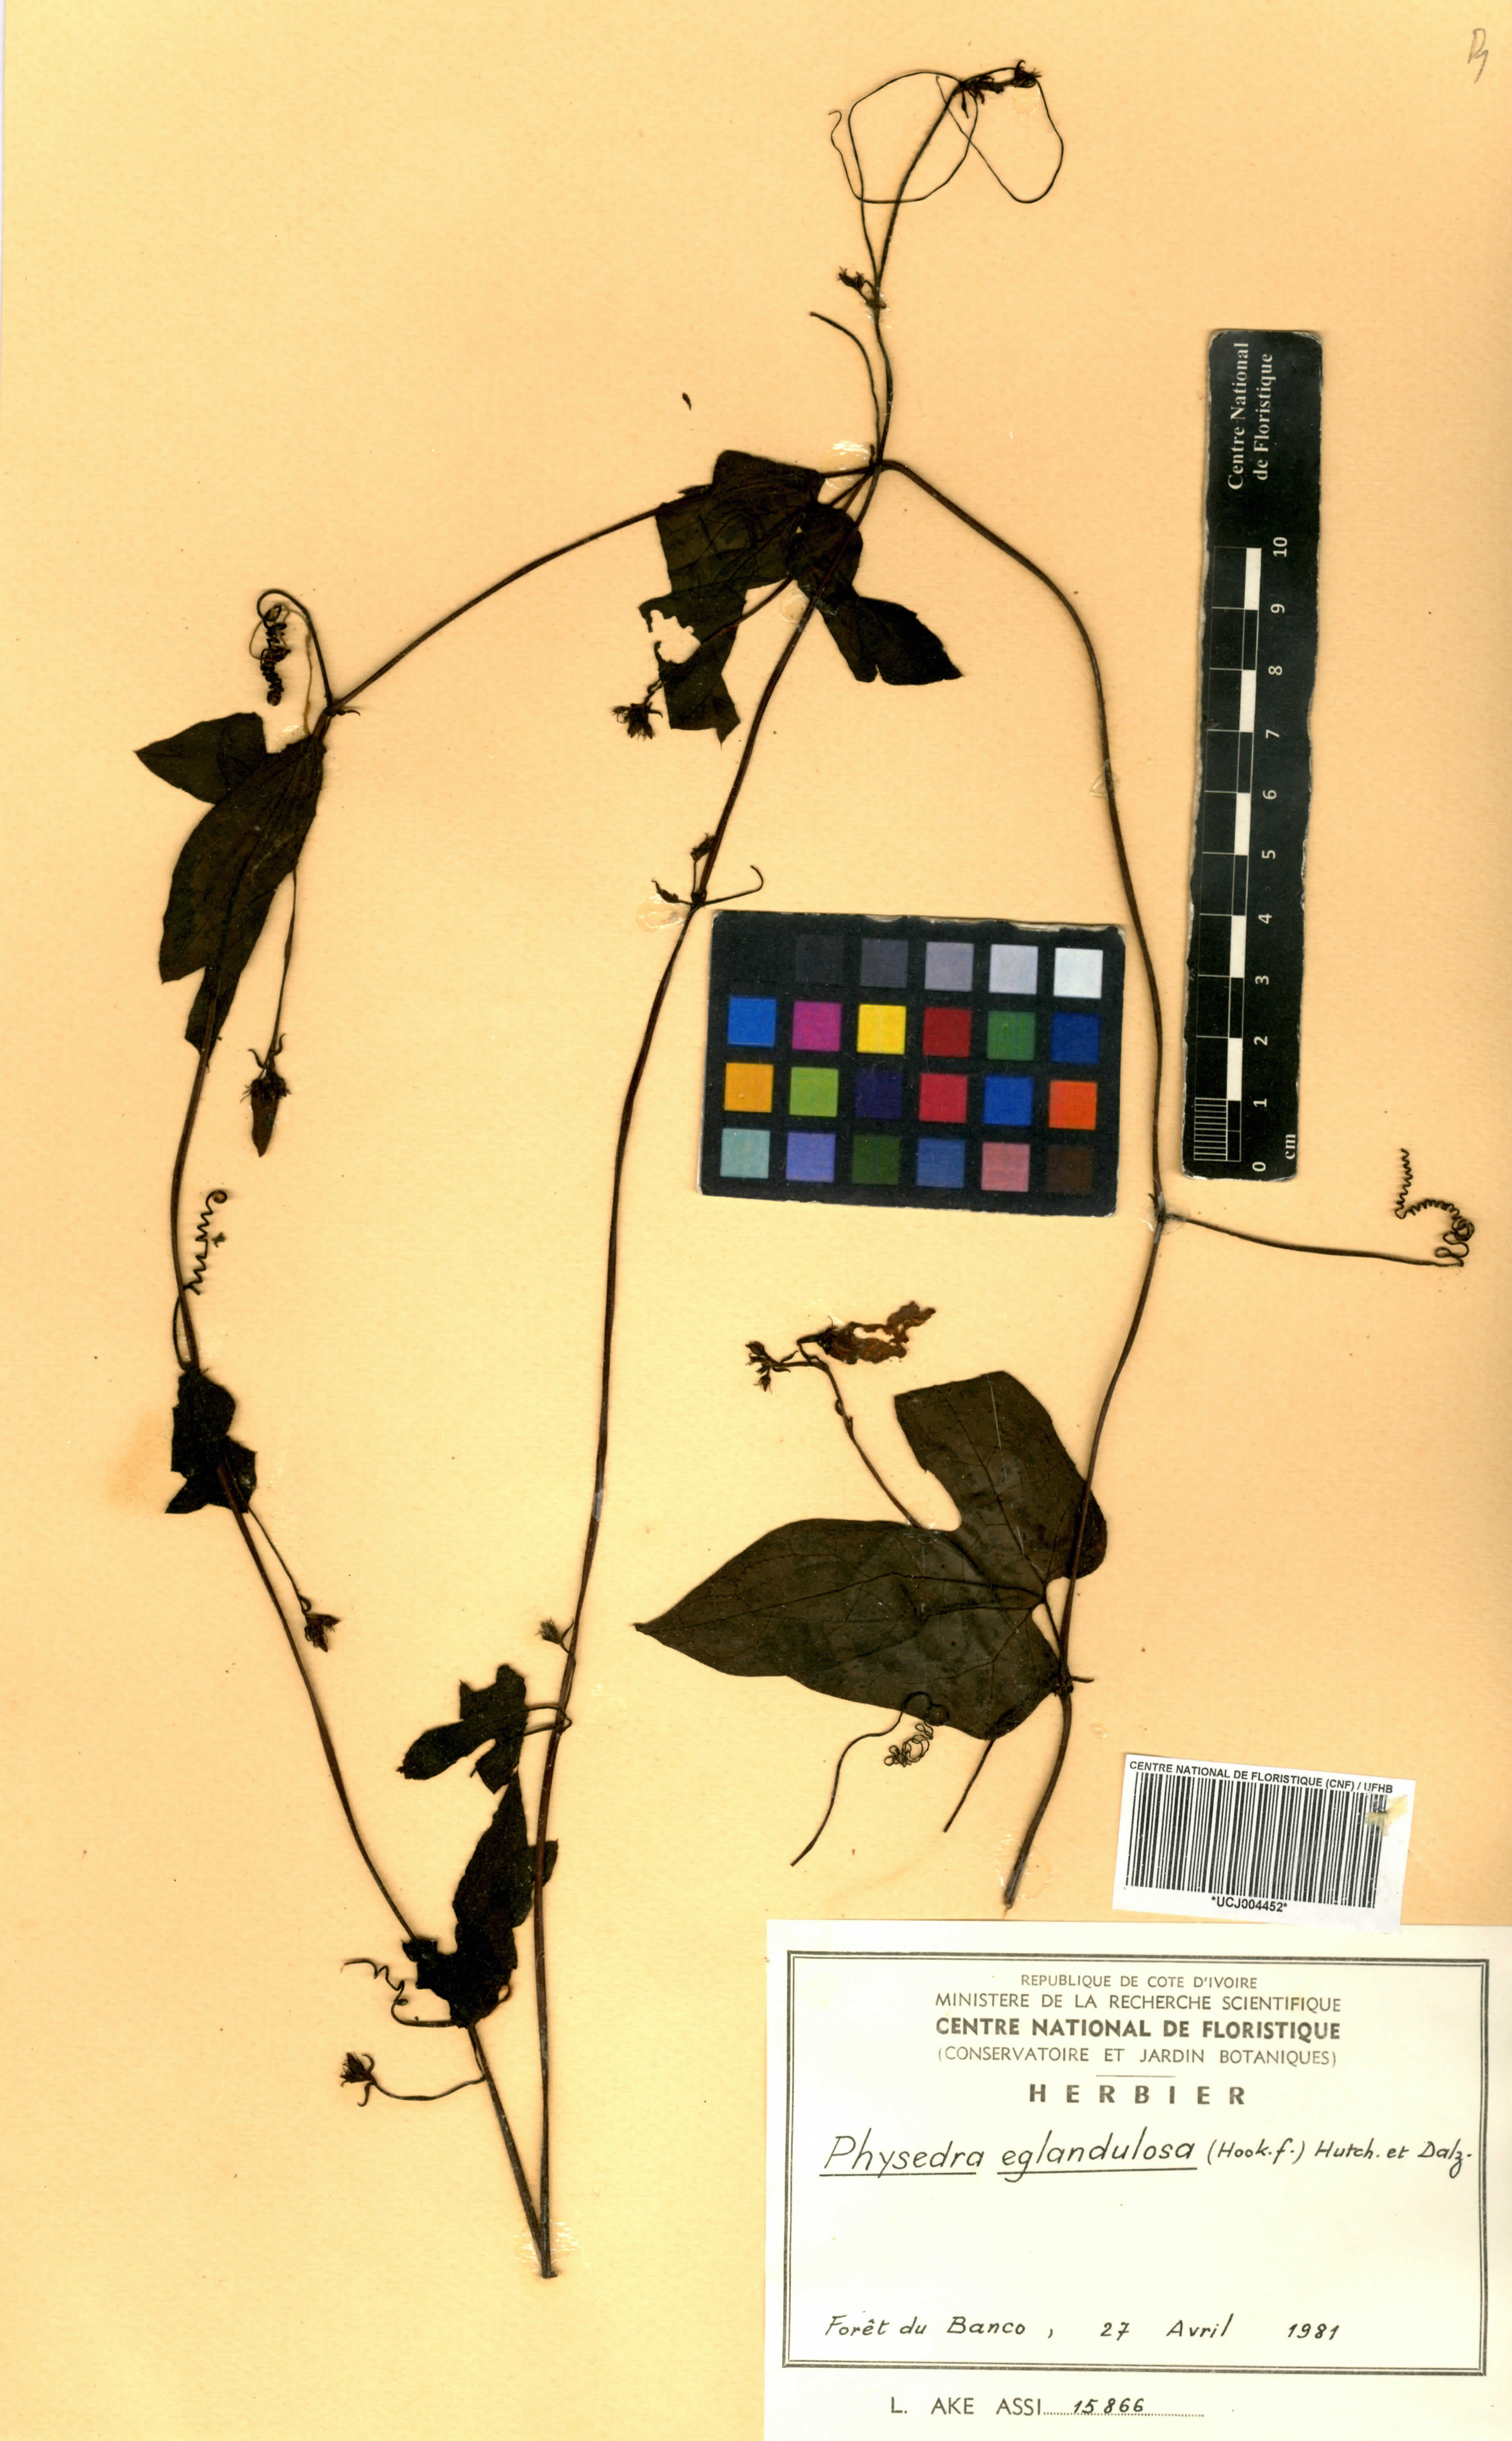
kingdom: Plantae
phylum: Tracheophyta
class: Magnoliopsida
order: Cucurbitales
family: Cucurbitaceae
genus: Ruthalicia
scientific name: Ruthalicia eglandulosa
